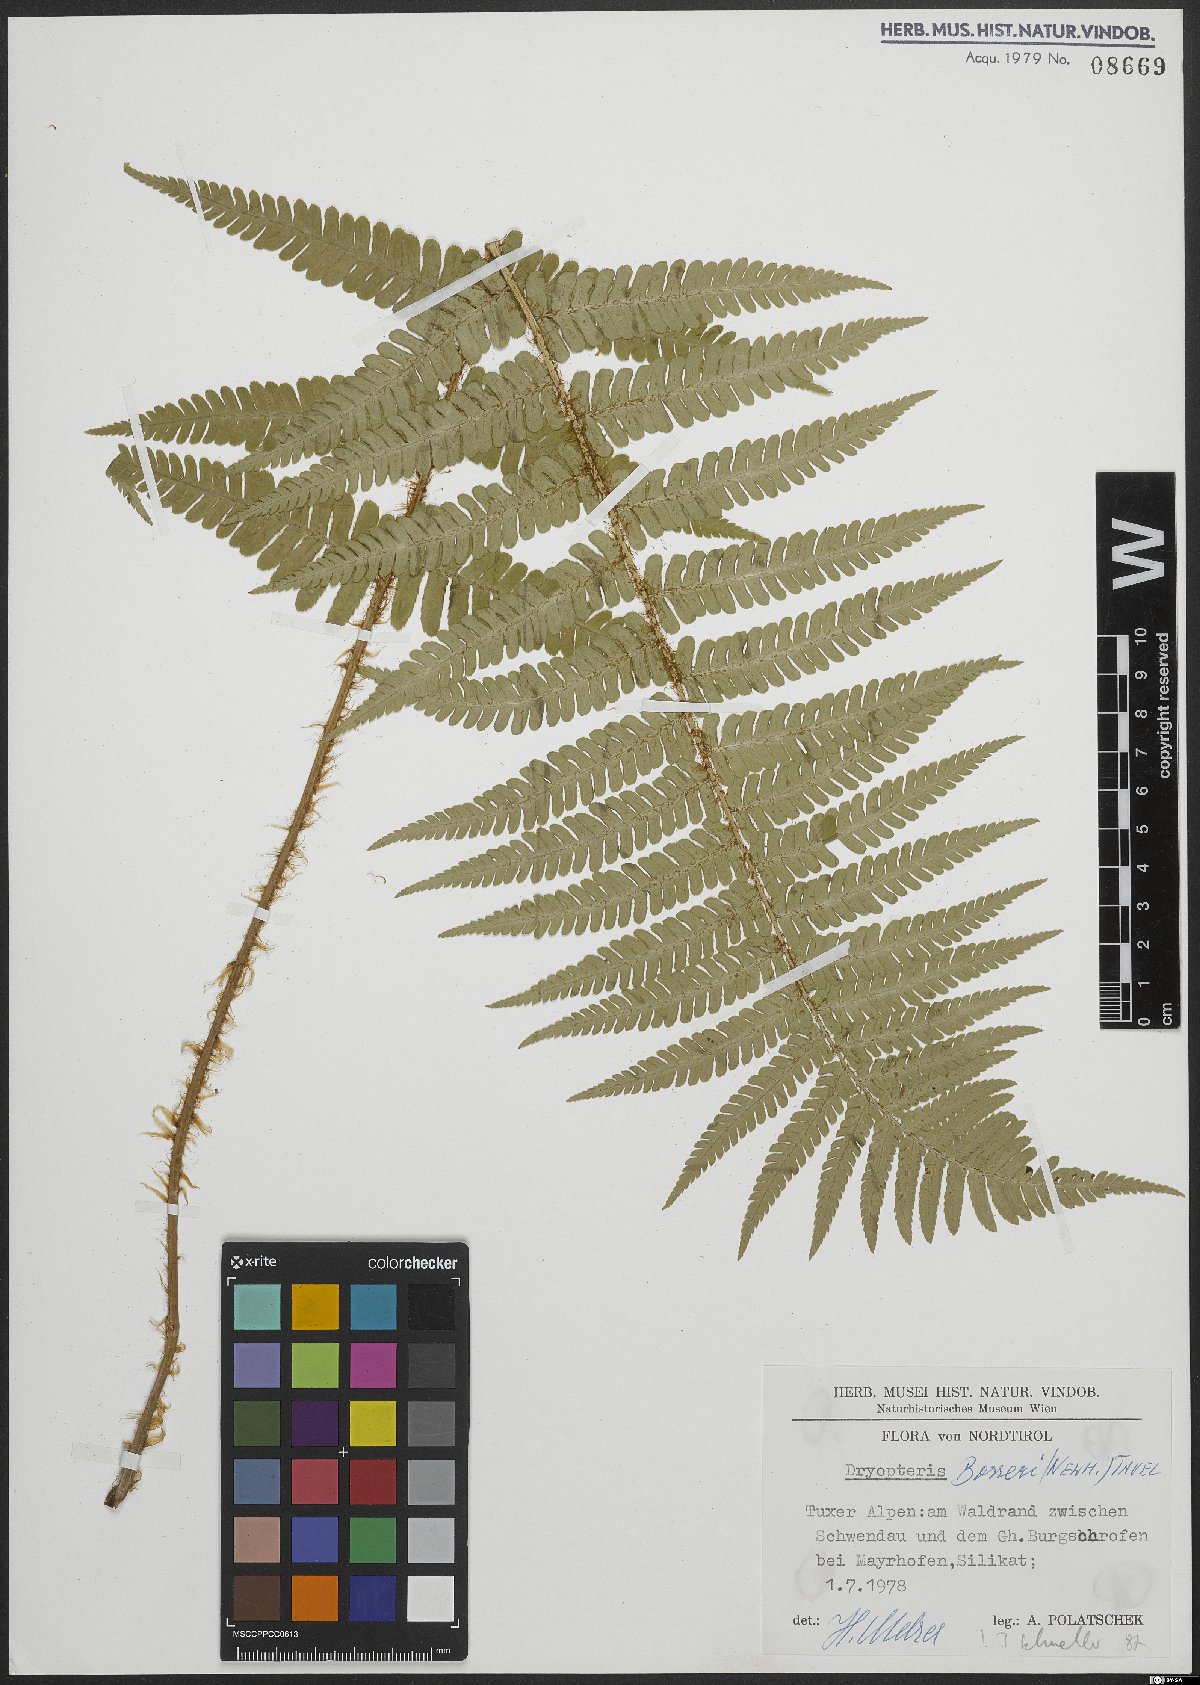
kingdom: Plantae
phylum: Tracheophyta
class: Polypodiopsida
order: Polypodiales
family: Dryopteridaceae
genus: Dryopteris
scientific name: Dryopteris borreri
